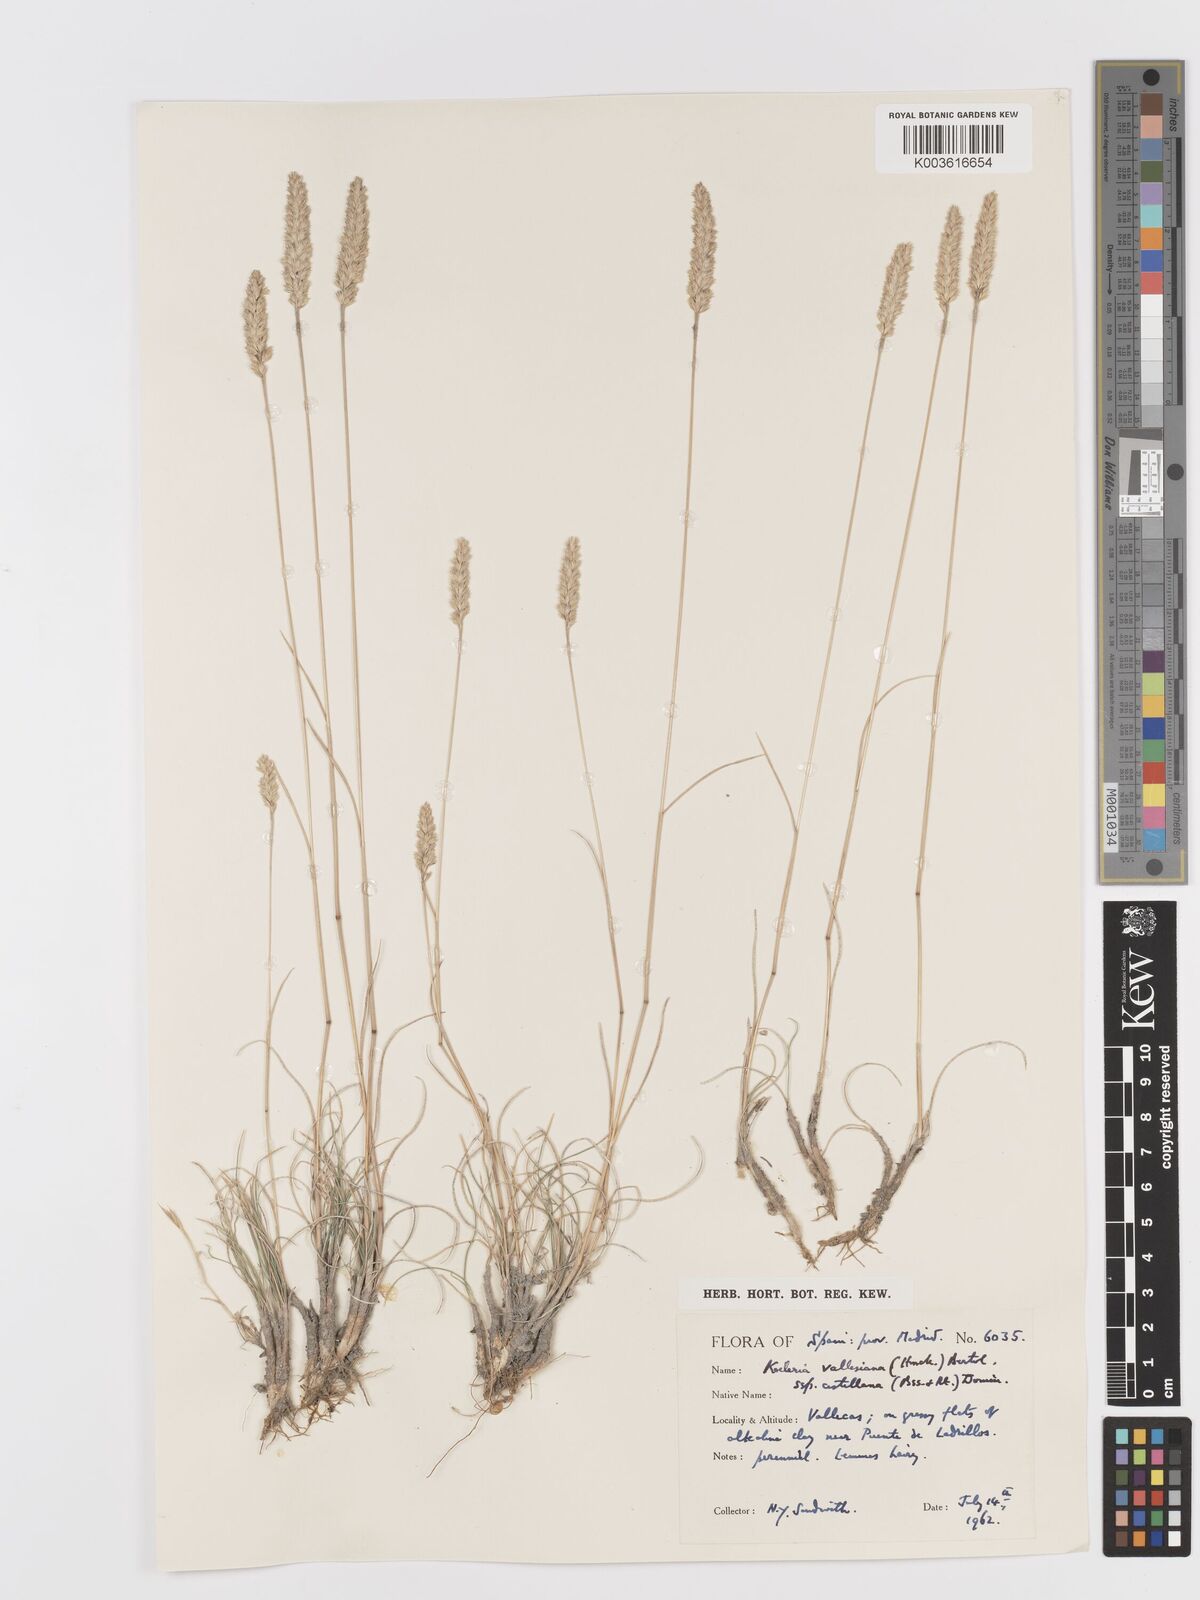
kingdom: Plantae
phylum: Tracheophyta
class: Liliopsida
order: Poales
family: Poaceae
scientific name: Poaceae
